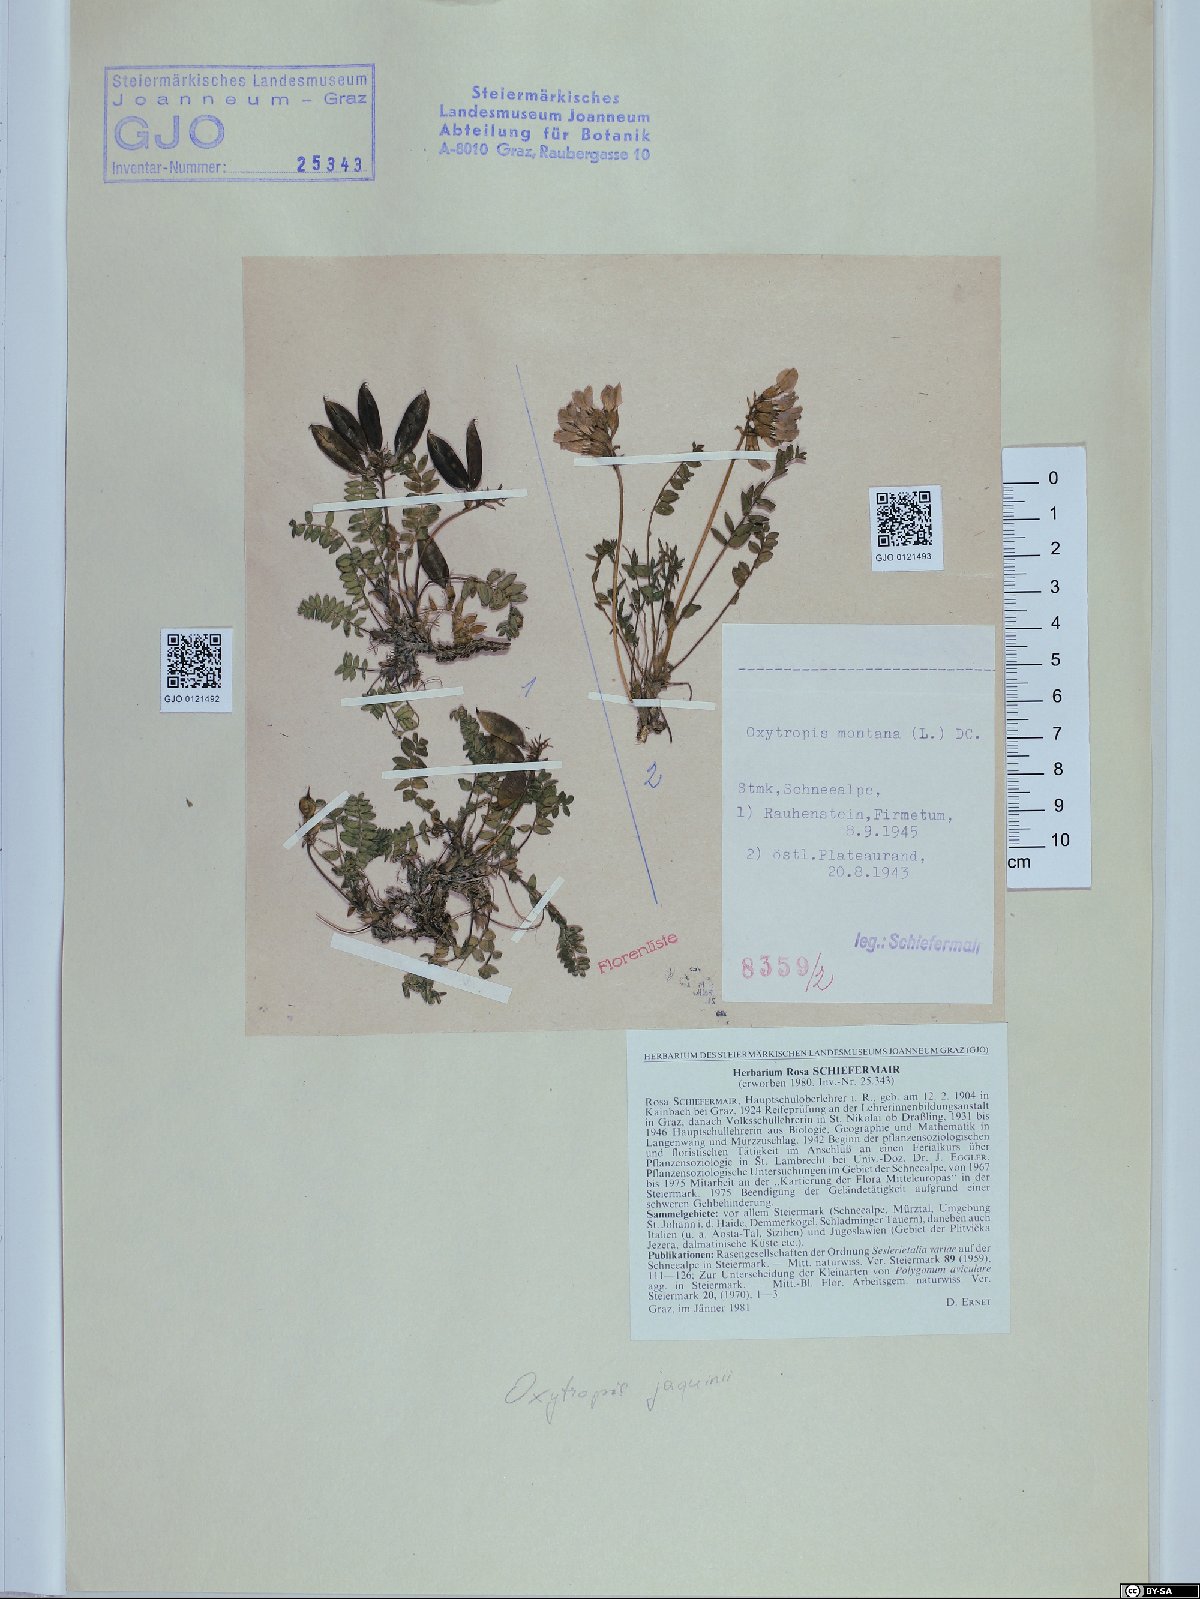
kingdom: Plantae
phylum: Tracheophyta
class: Magnoliopsida
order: Fabales
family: Fabaceae
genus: Oxytropis
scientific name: Oxytropis montana
